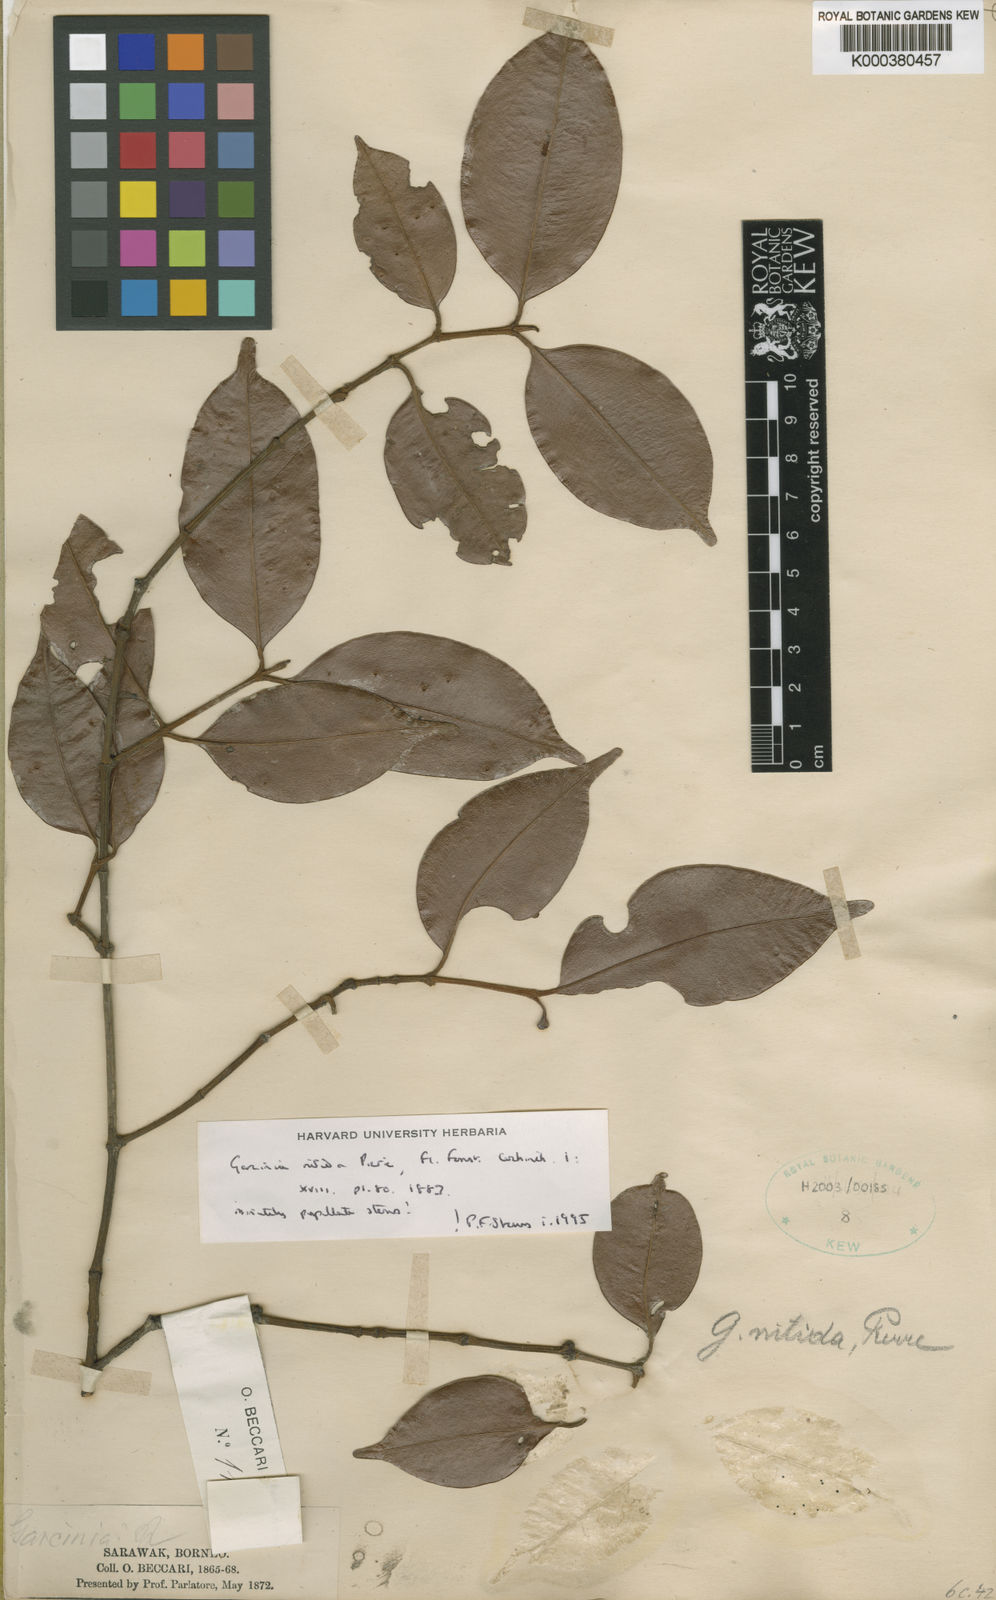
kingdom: Plantae
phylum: Tracheophyta
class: Magnoliopsida
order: Malpighiales
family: Clusiaceae
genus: Garcinia
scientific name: Garcinia nitida
